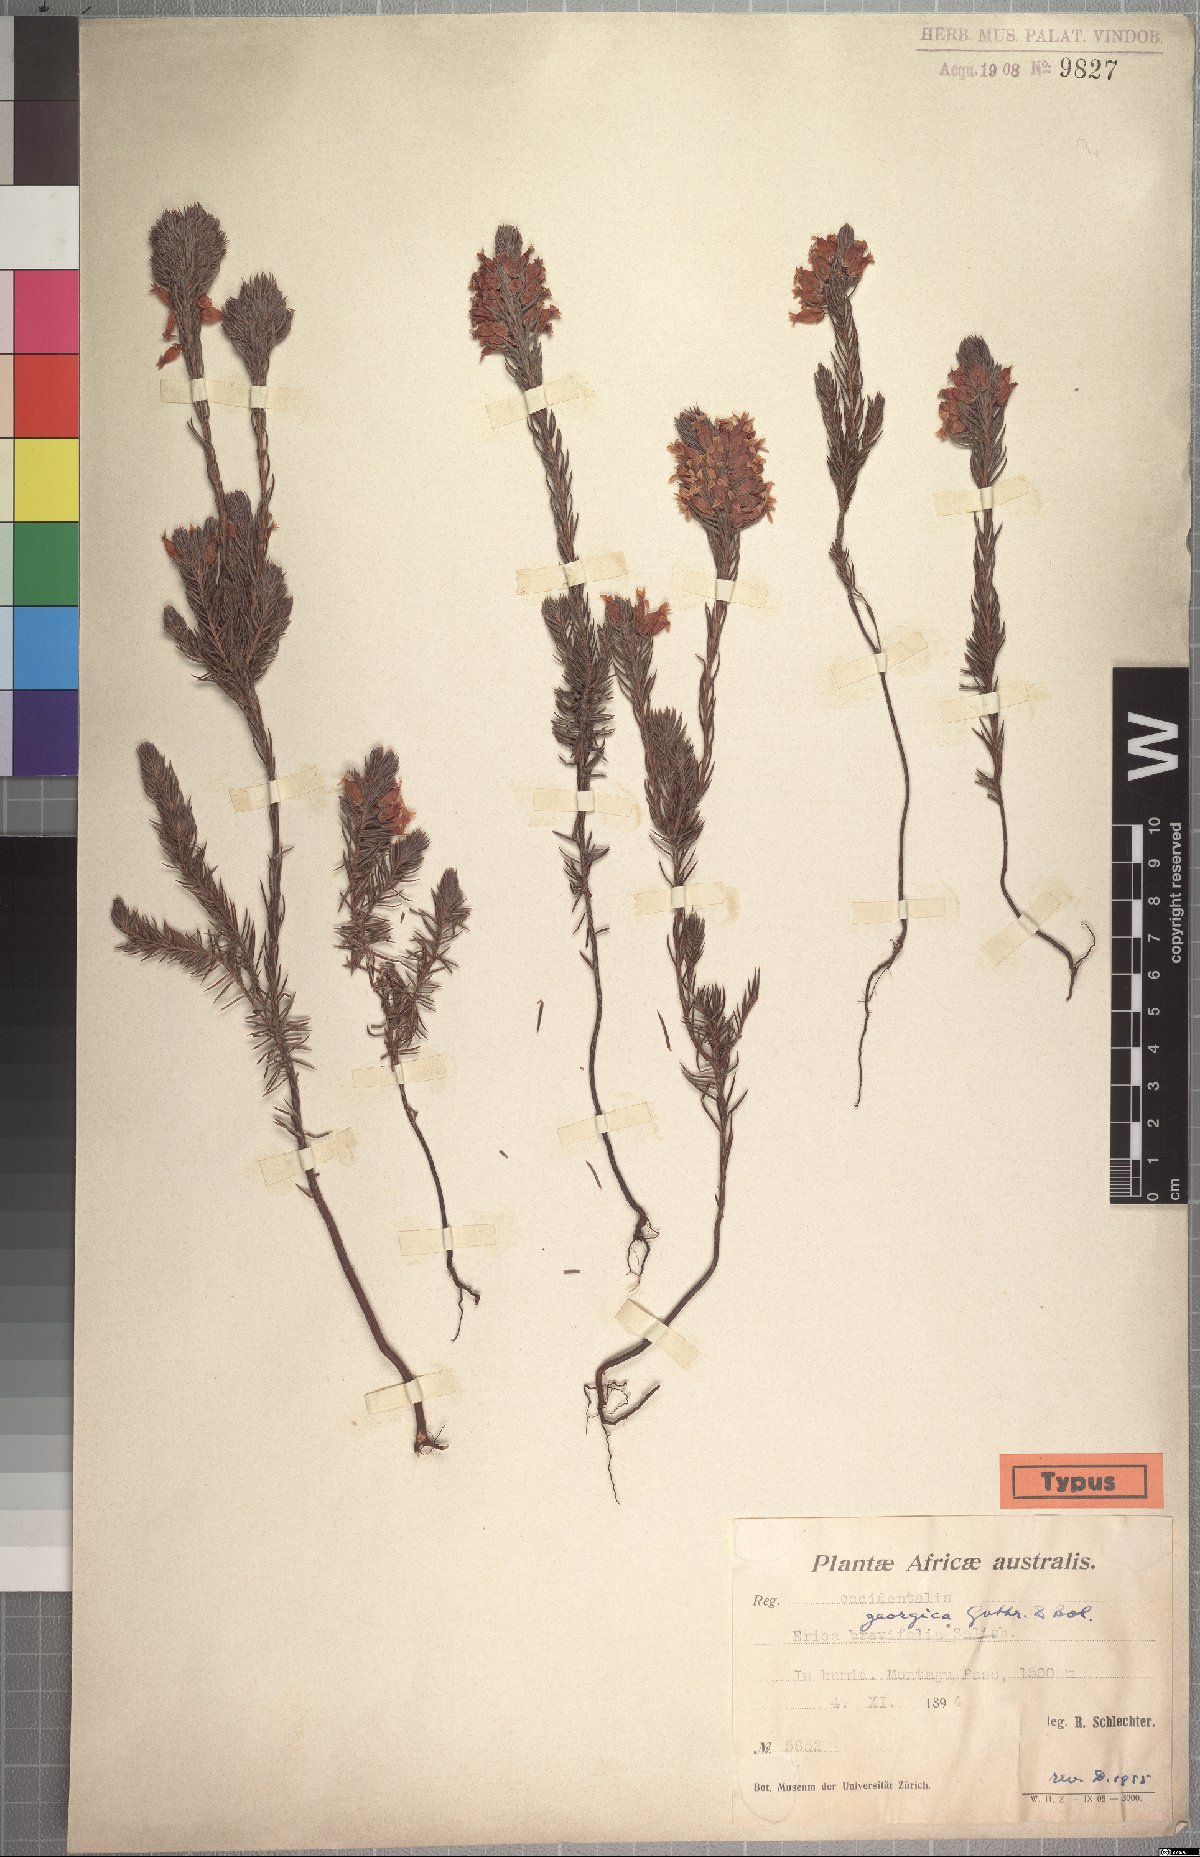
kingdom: Plantae
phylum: Tracheophyta
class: Magnoliopsida
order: Ericales
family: Ericaceae
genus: Erica
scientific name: Erica georgica
